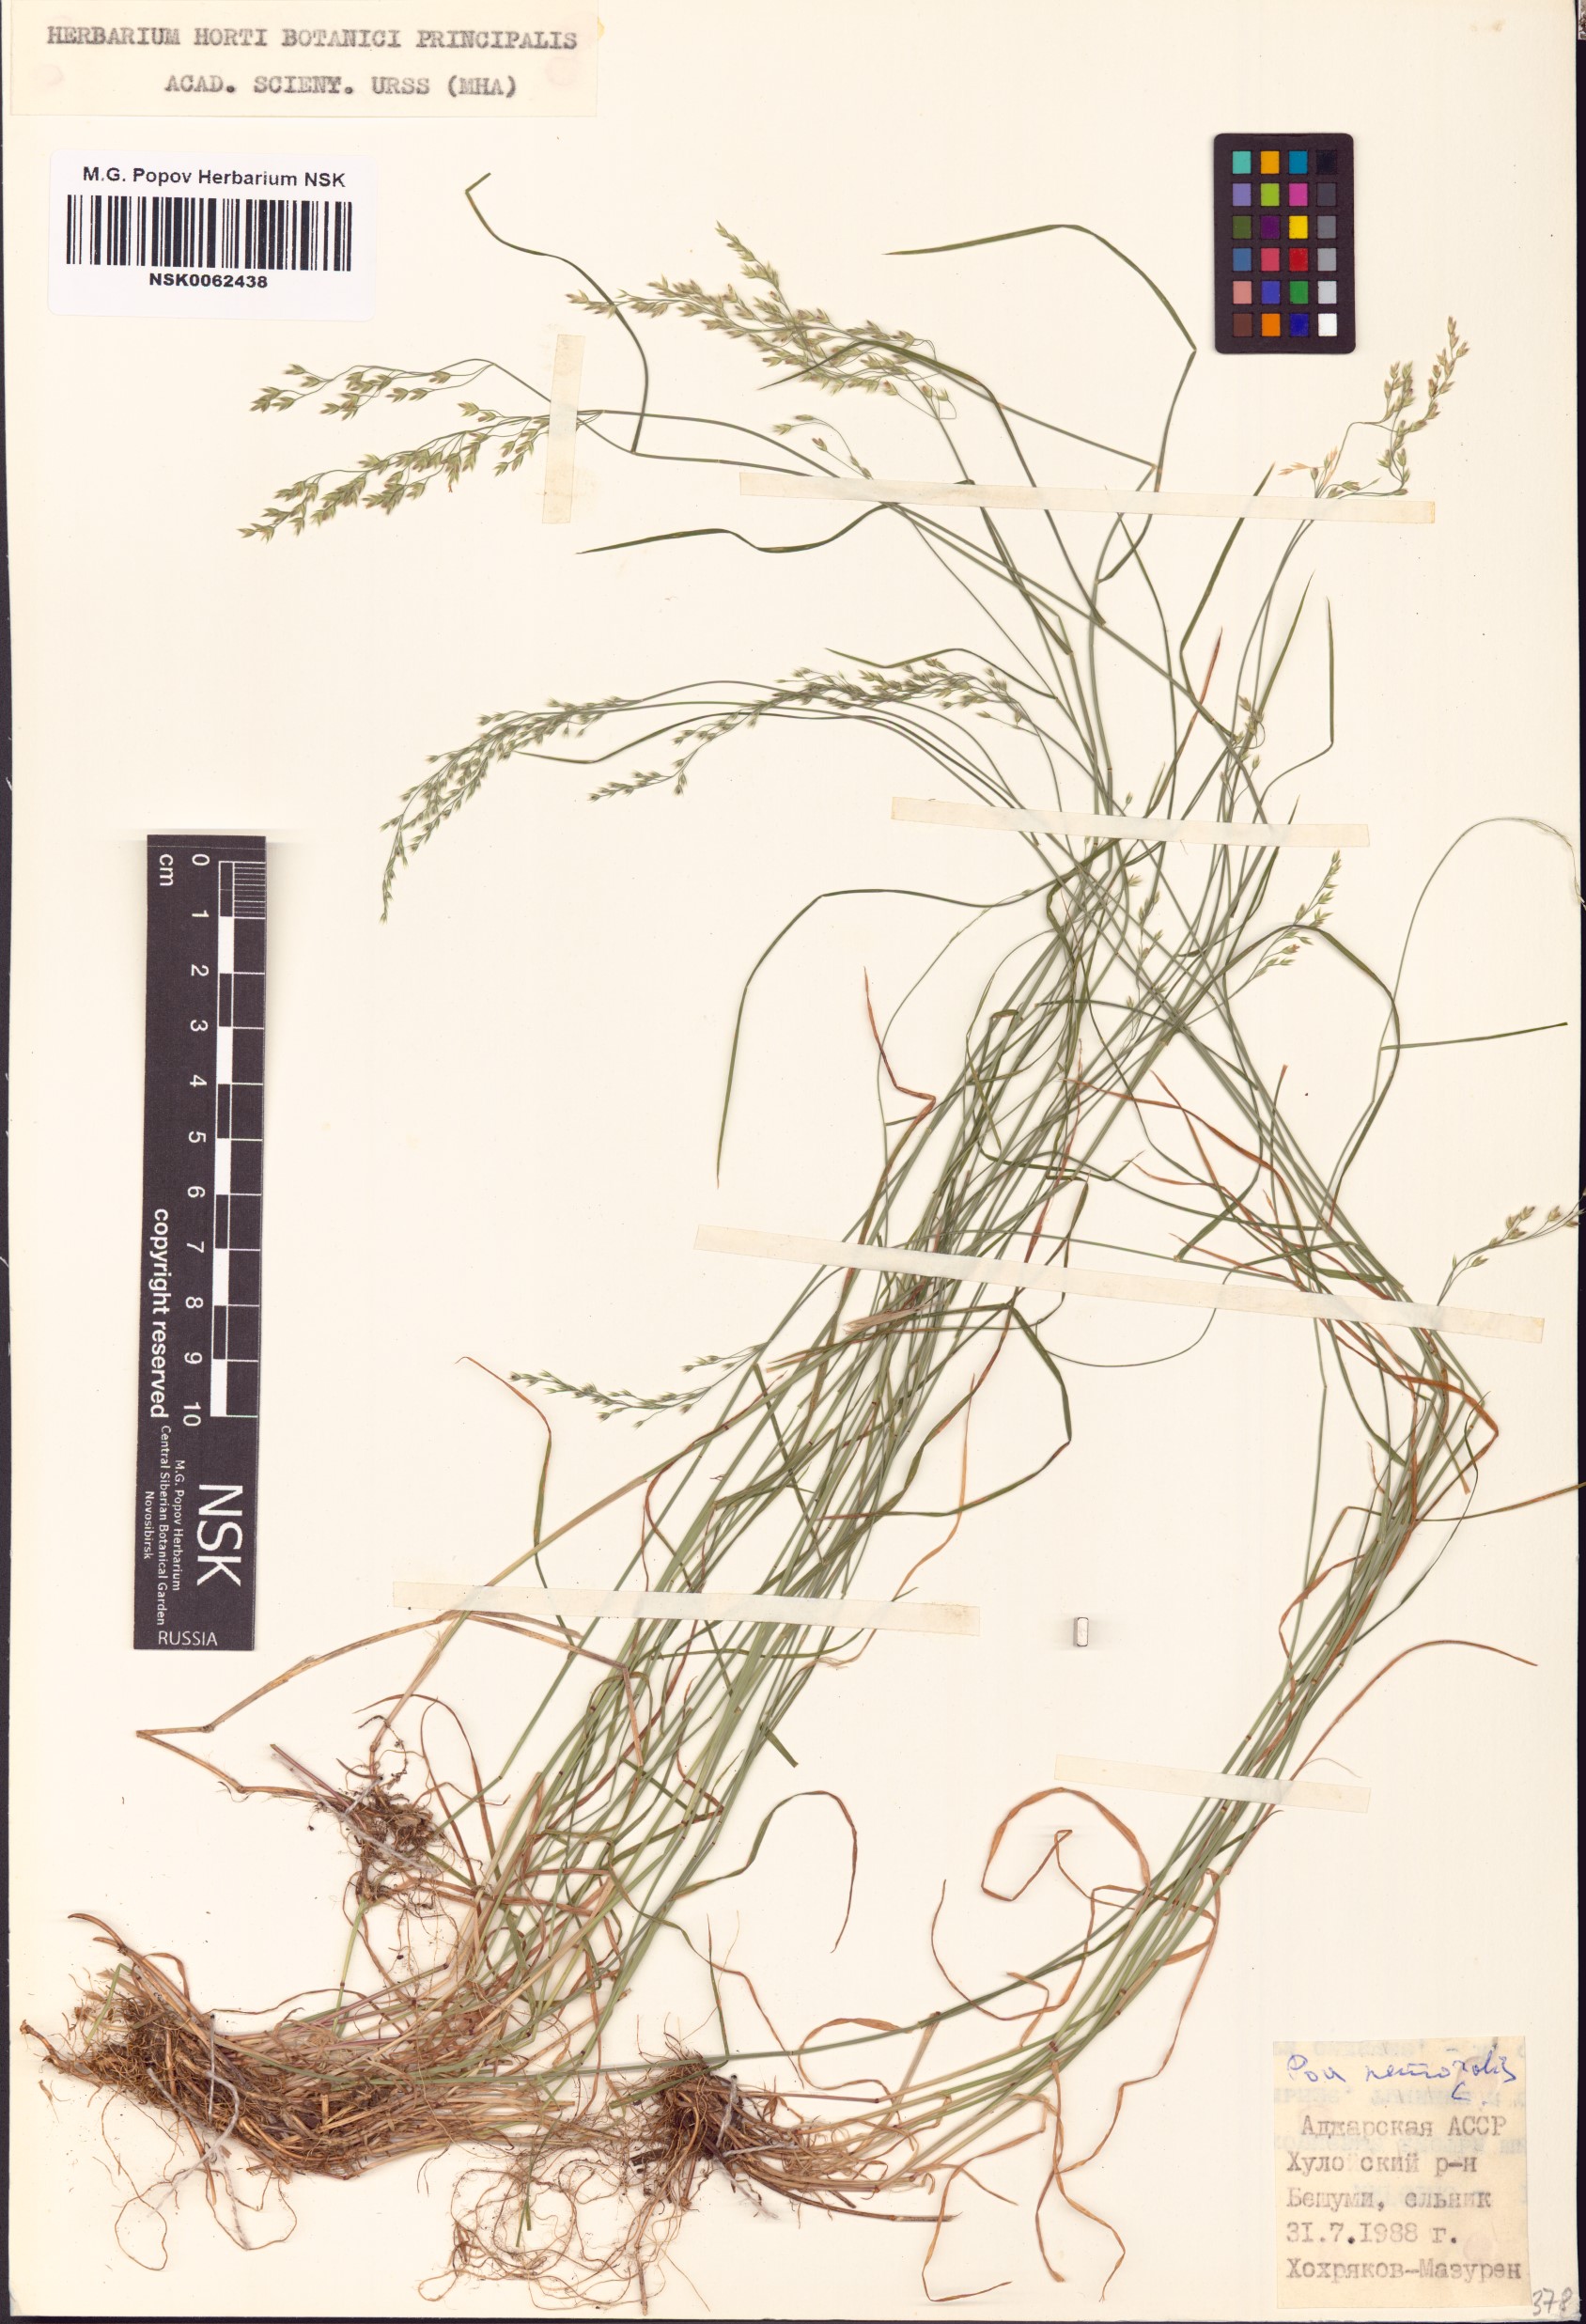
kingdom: Plantae
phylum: Tracheophyta
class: Liliopsida
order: Poales
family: Poaceae
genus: Poa
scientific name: Poa nemoralis
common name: Wood bluegrass
